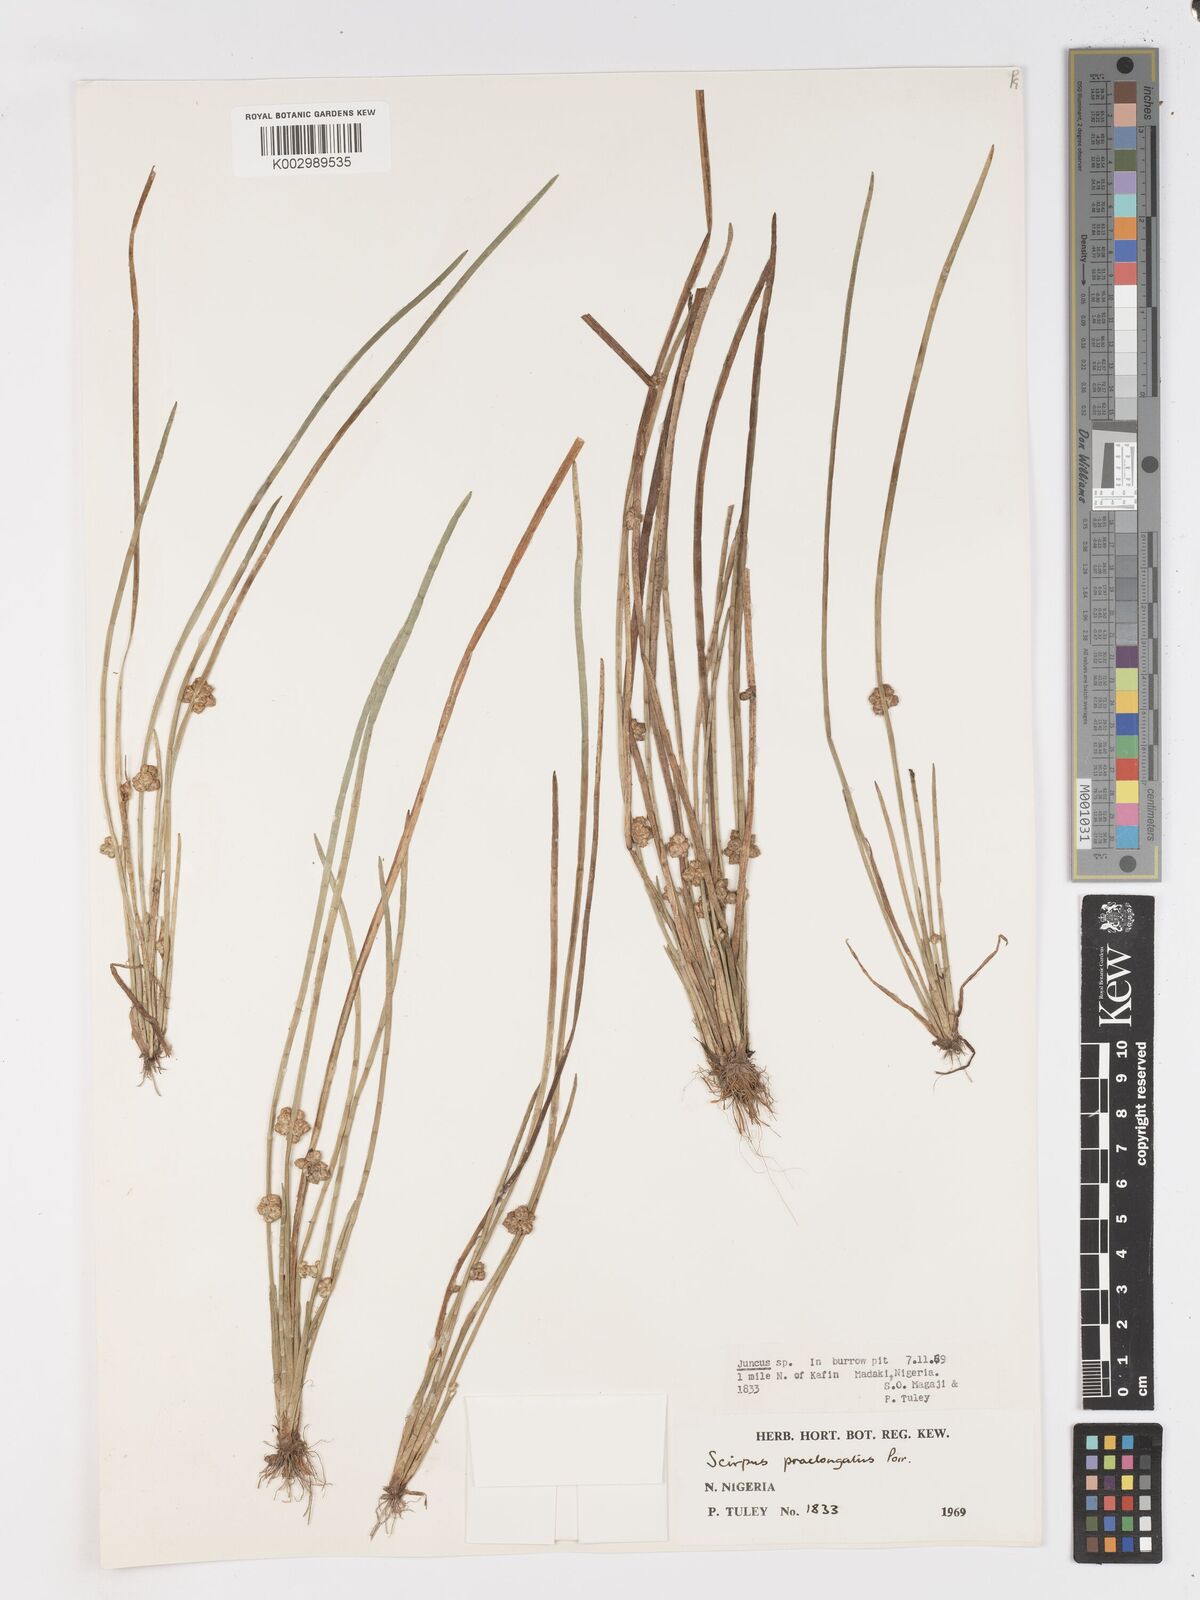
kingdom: Plantae
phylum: Tracheophyta
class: Liliopsida
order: Poales
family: Cyperaceae
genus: Schoenoplectiella
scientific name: Schoenoplectiella praelongata
